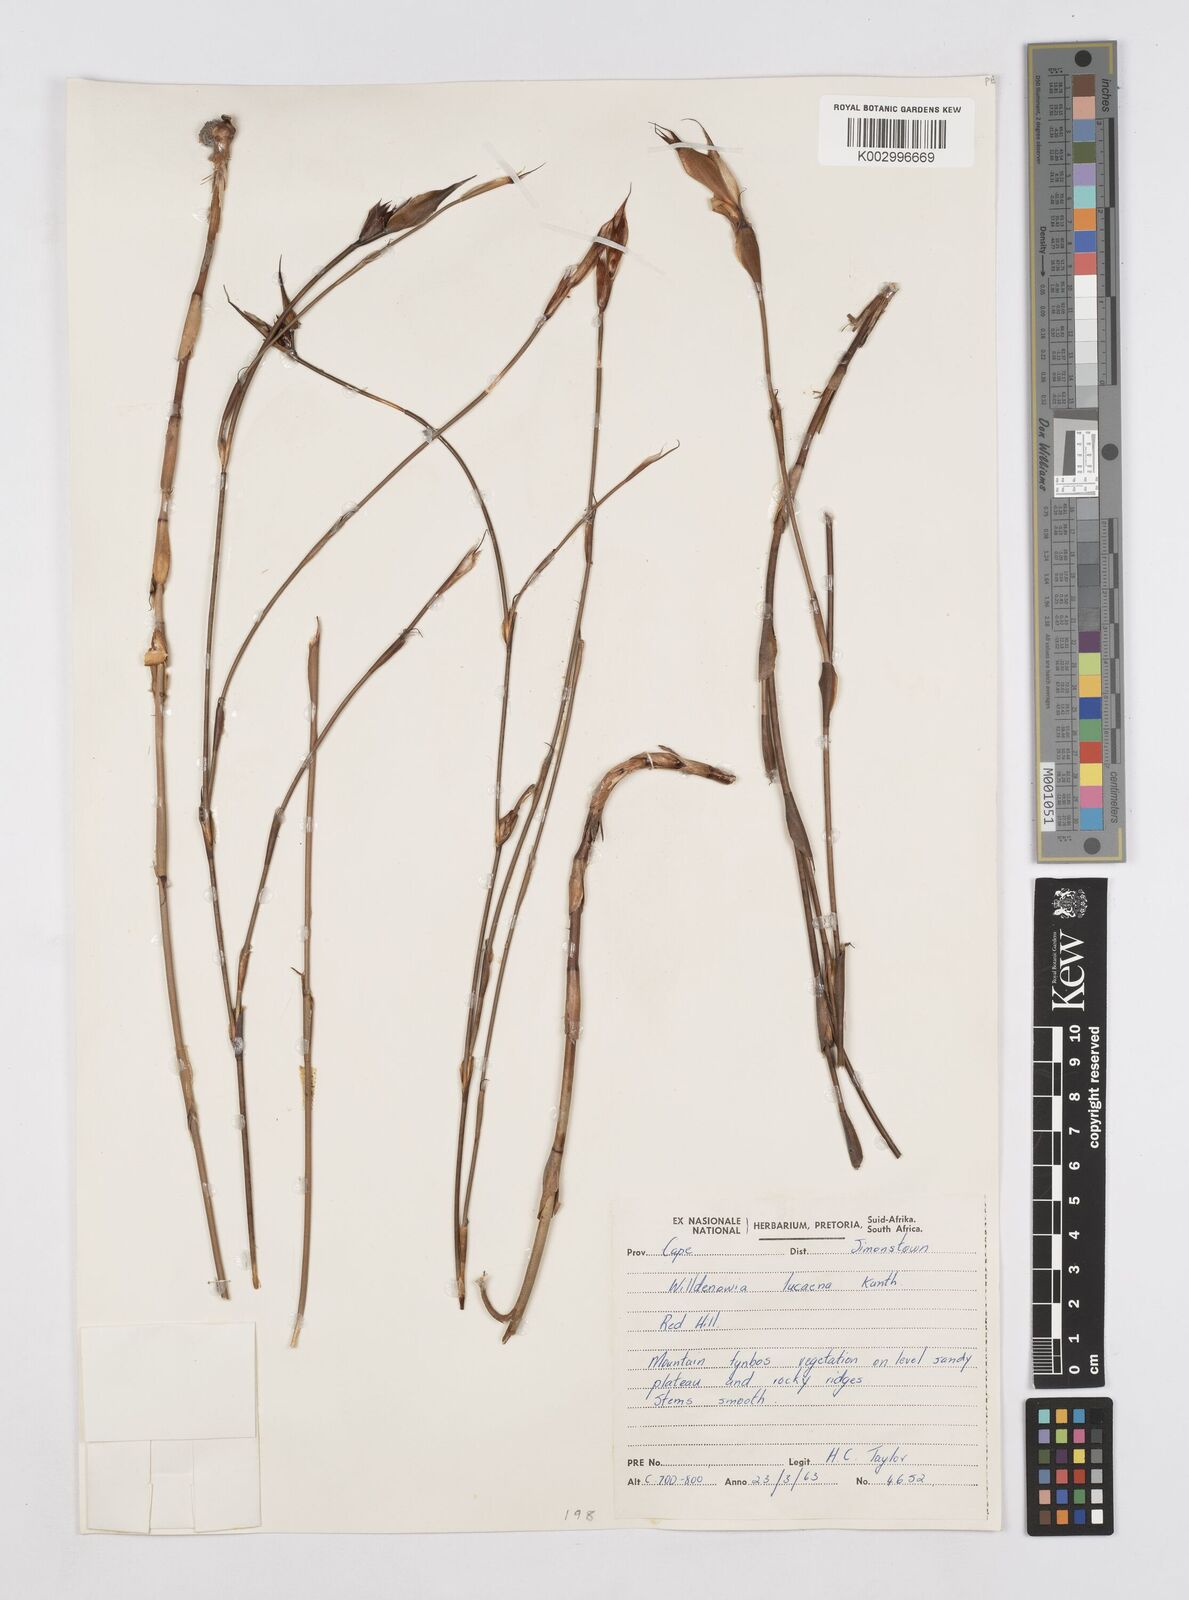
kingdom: Plantae
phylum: Tracheophyta
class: Liliopsida
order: Poales
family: Restionaceae
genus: Willdenowia
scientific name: Willdenowia glomerata
